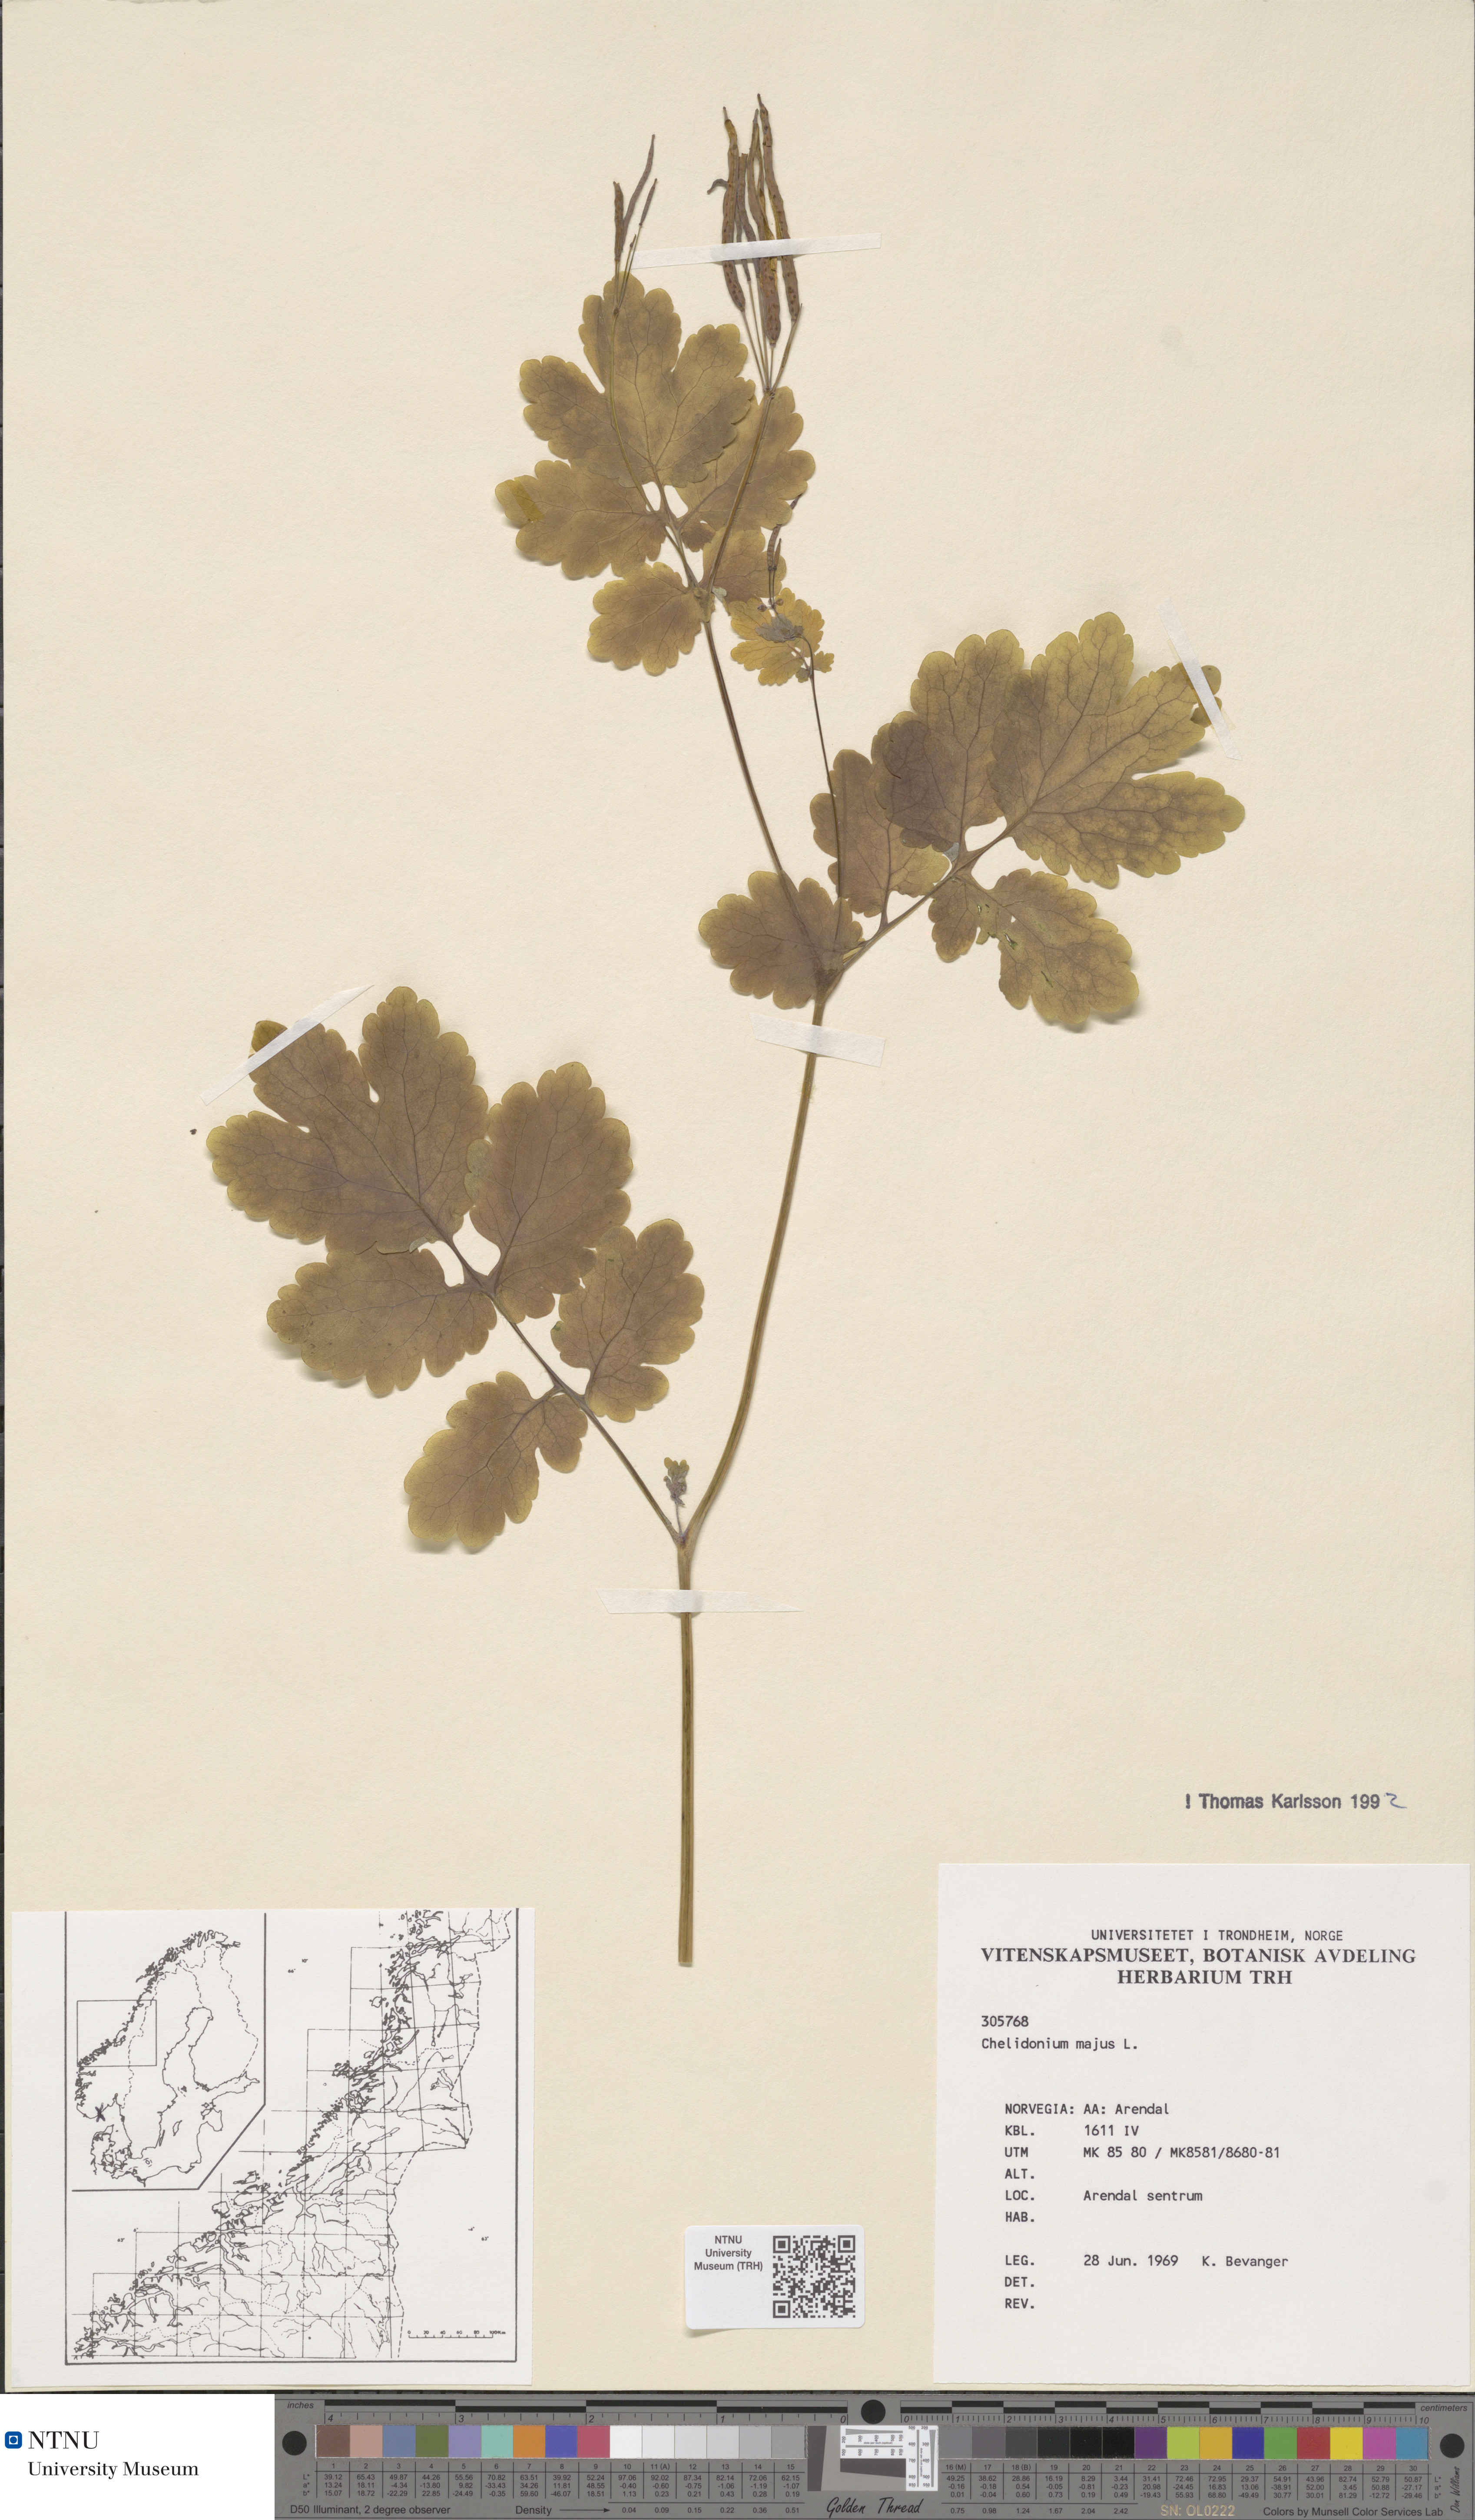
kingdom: Plantae
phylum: Tracheophyta
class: Magnoliopsida
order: Ranunculales
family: Papaveraceae
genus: Chelidonium
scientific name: Chelidonium majus
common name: Greater celandine
